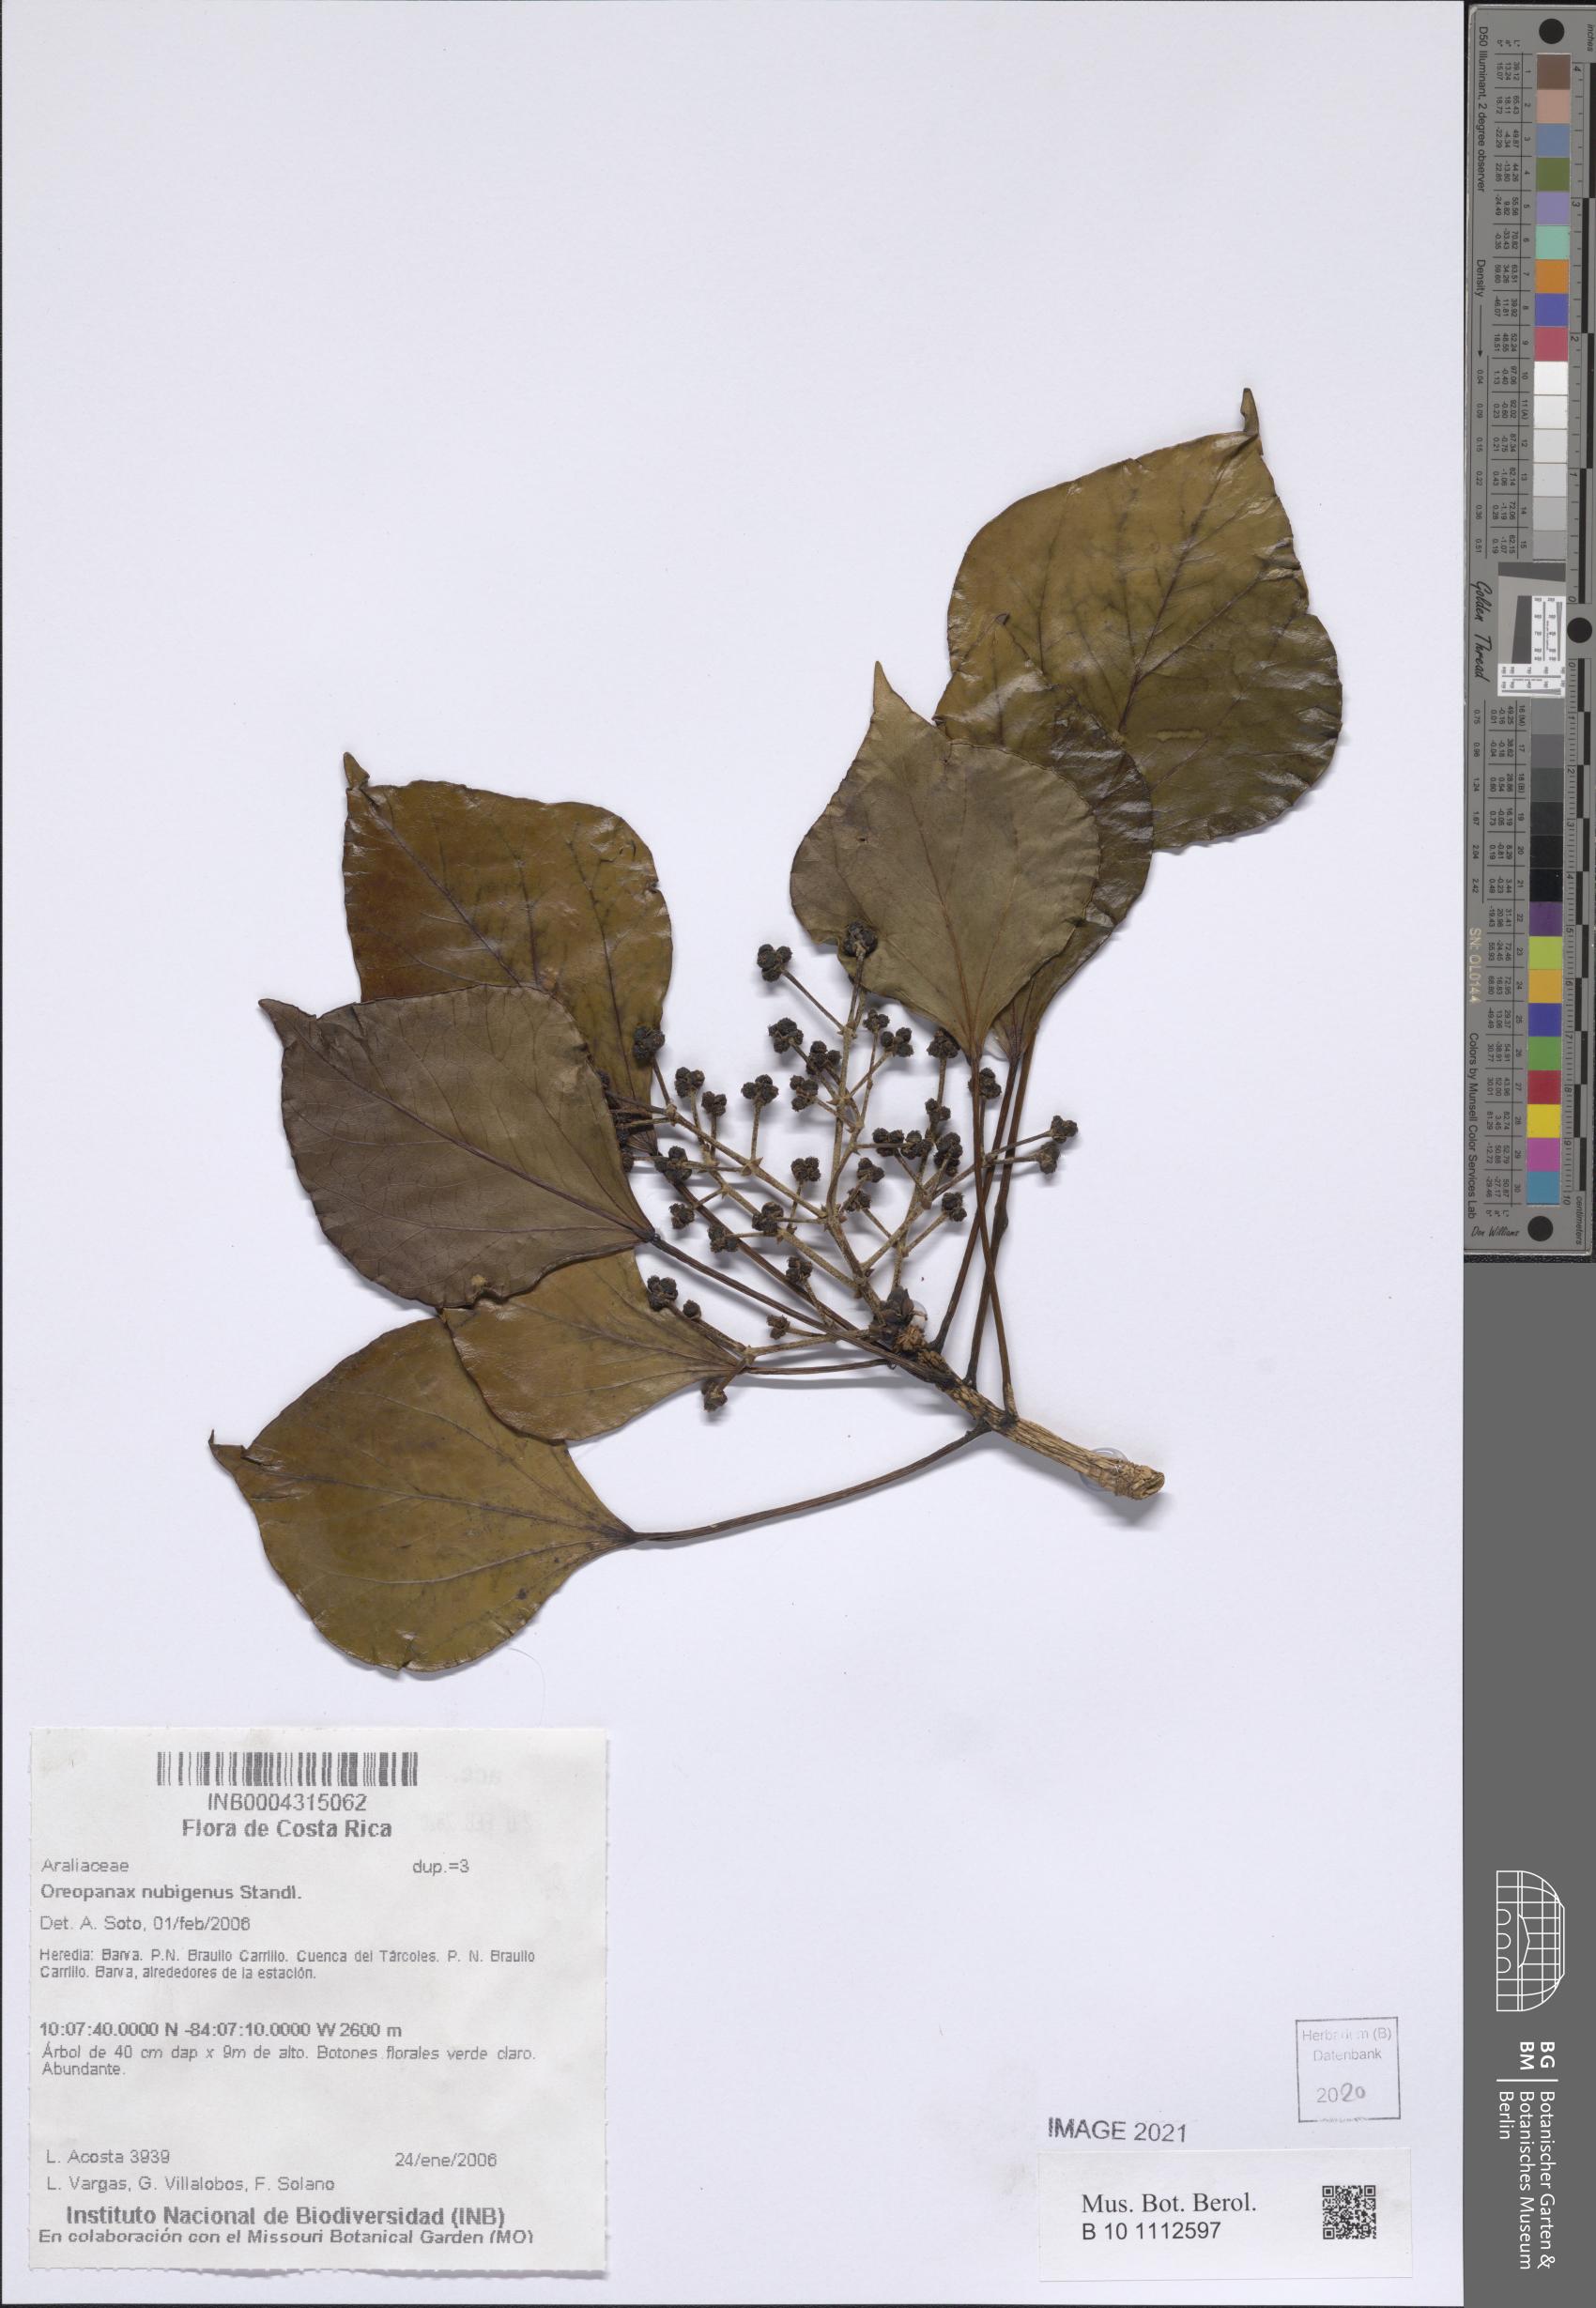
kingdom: Plantae
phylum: Tracheophyta
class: Magnoliopsida
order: Apiales
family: Araliaceae
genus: Oreopanax
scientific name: Oreopanax nubigenus
